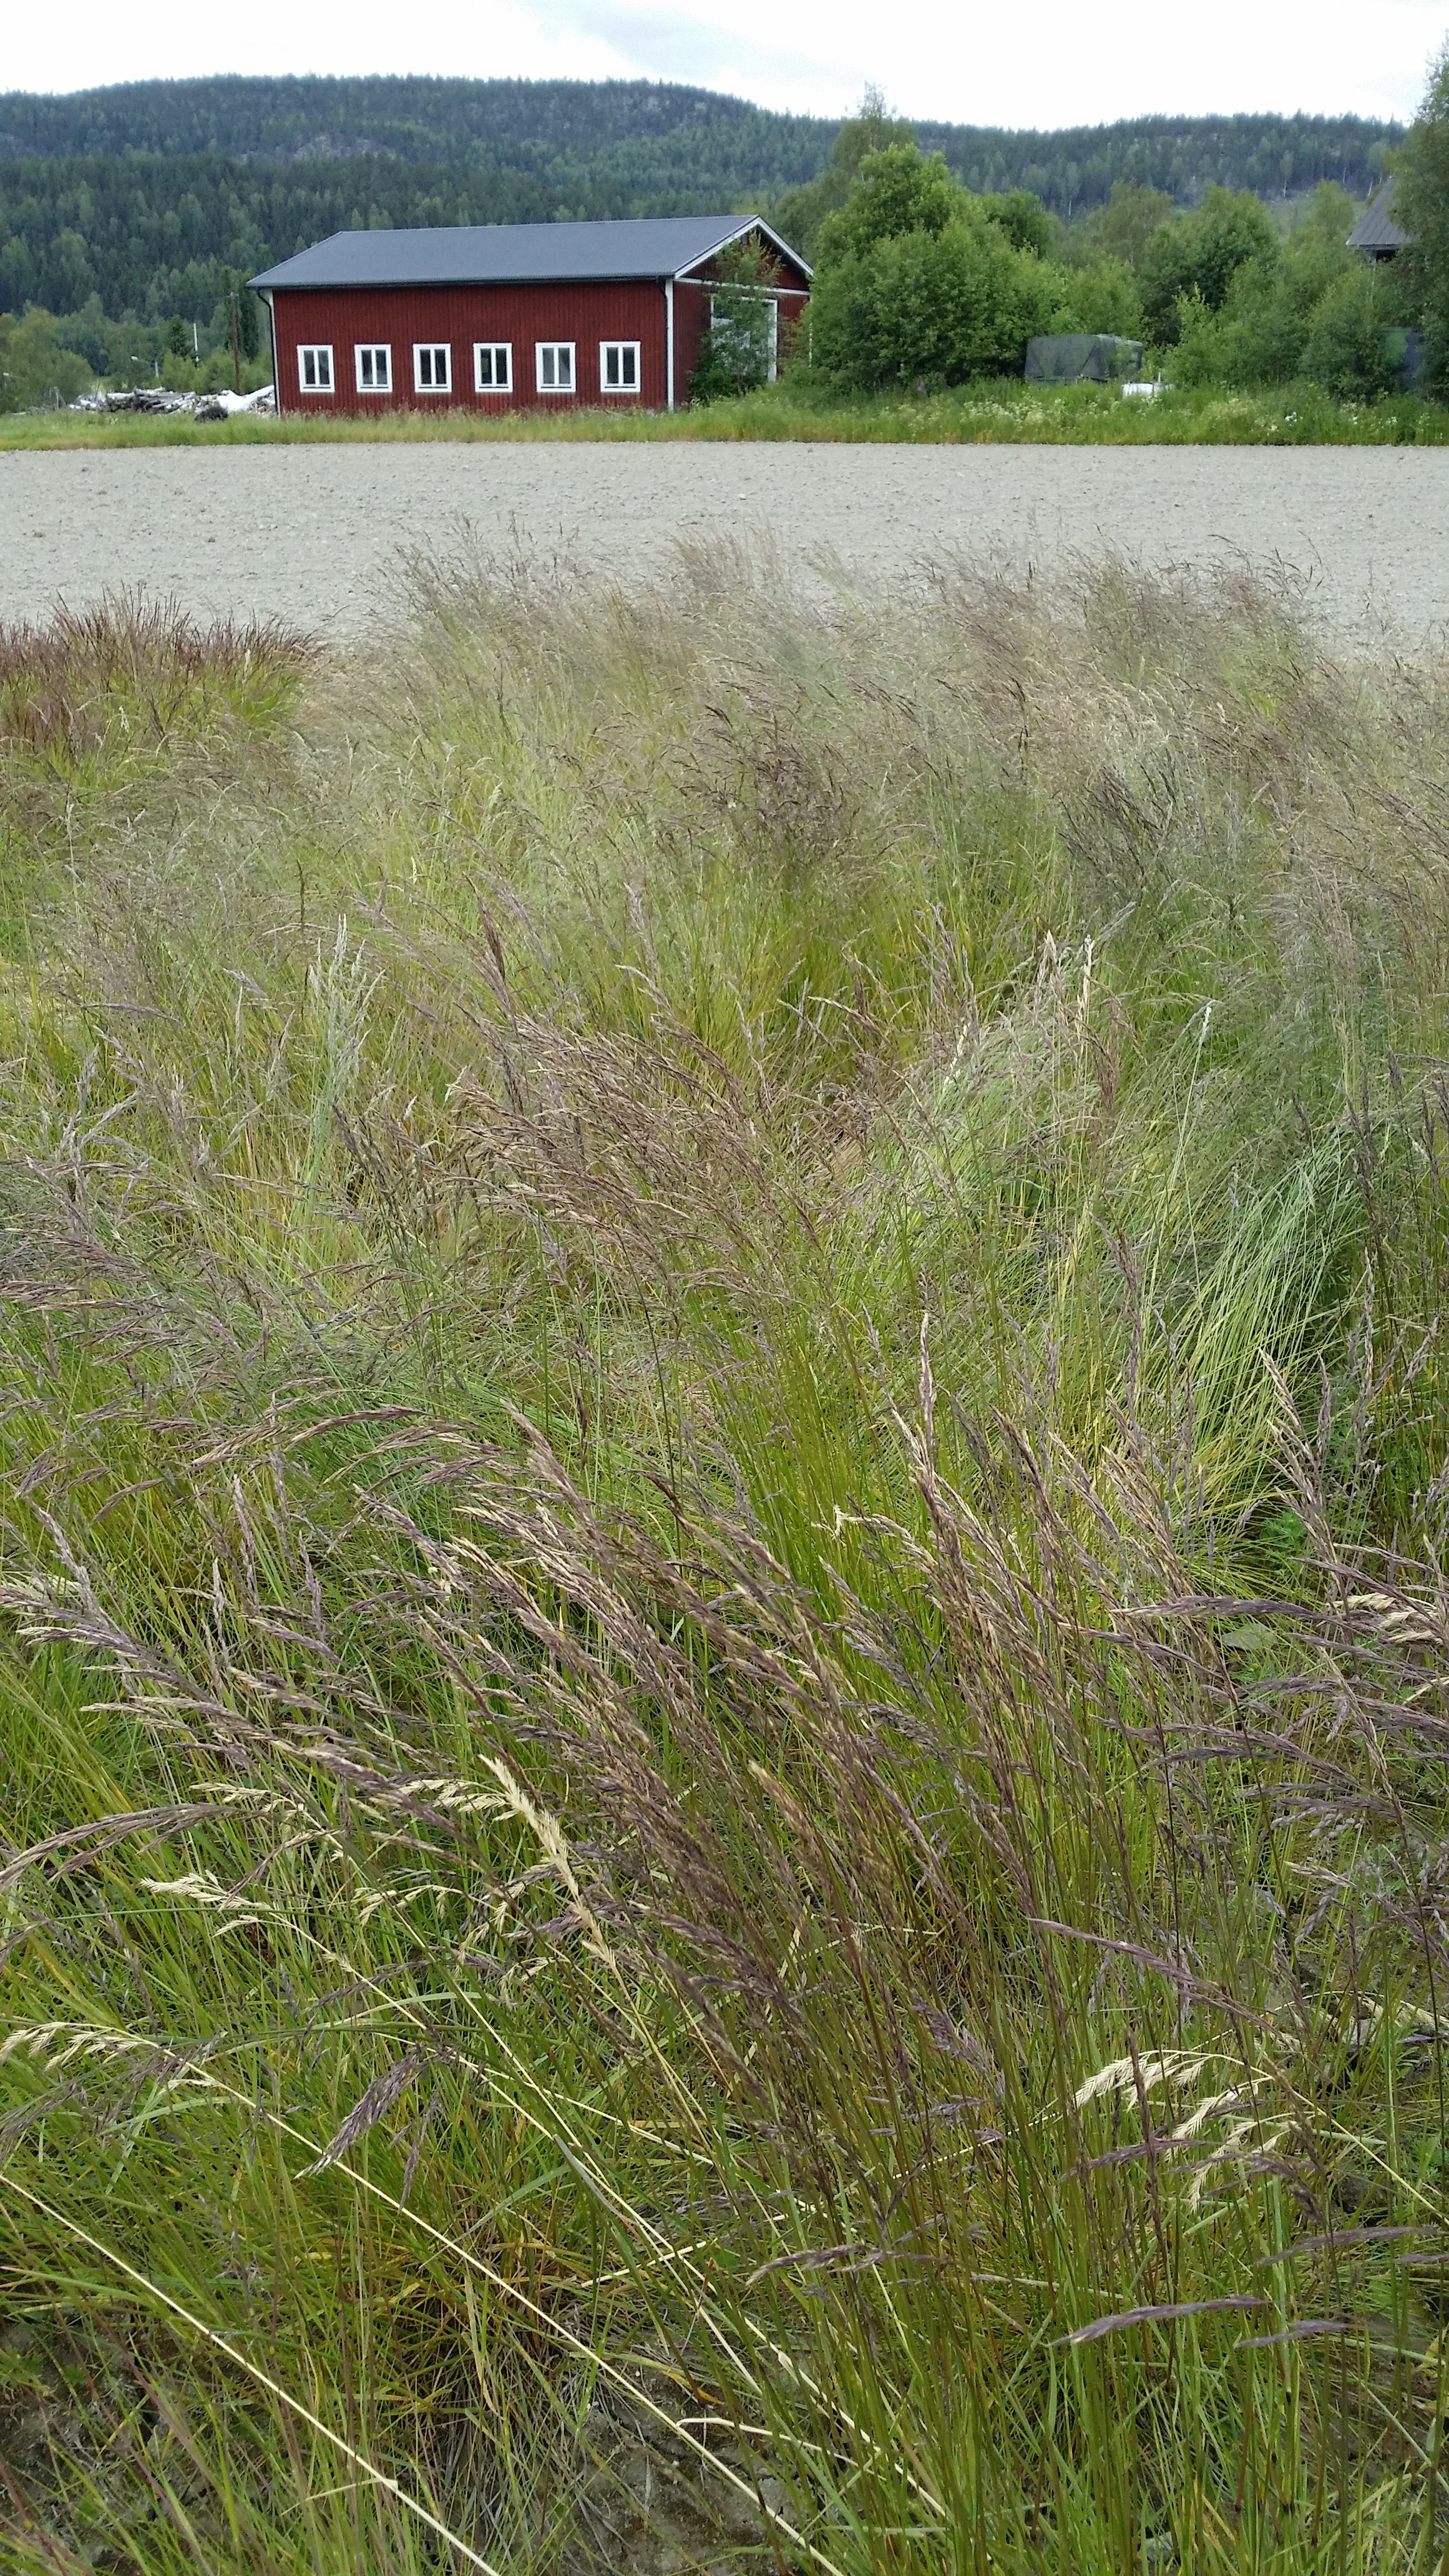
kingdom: Plantae
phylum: Tracheophyta
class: Liliopsida
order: Poales
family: Poaceae
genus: Festuca
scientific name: Festuca rubra
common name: Red fescue
